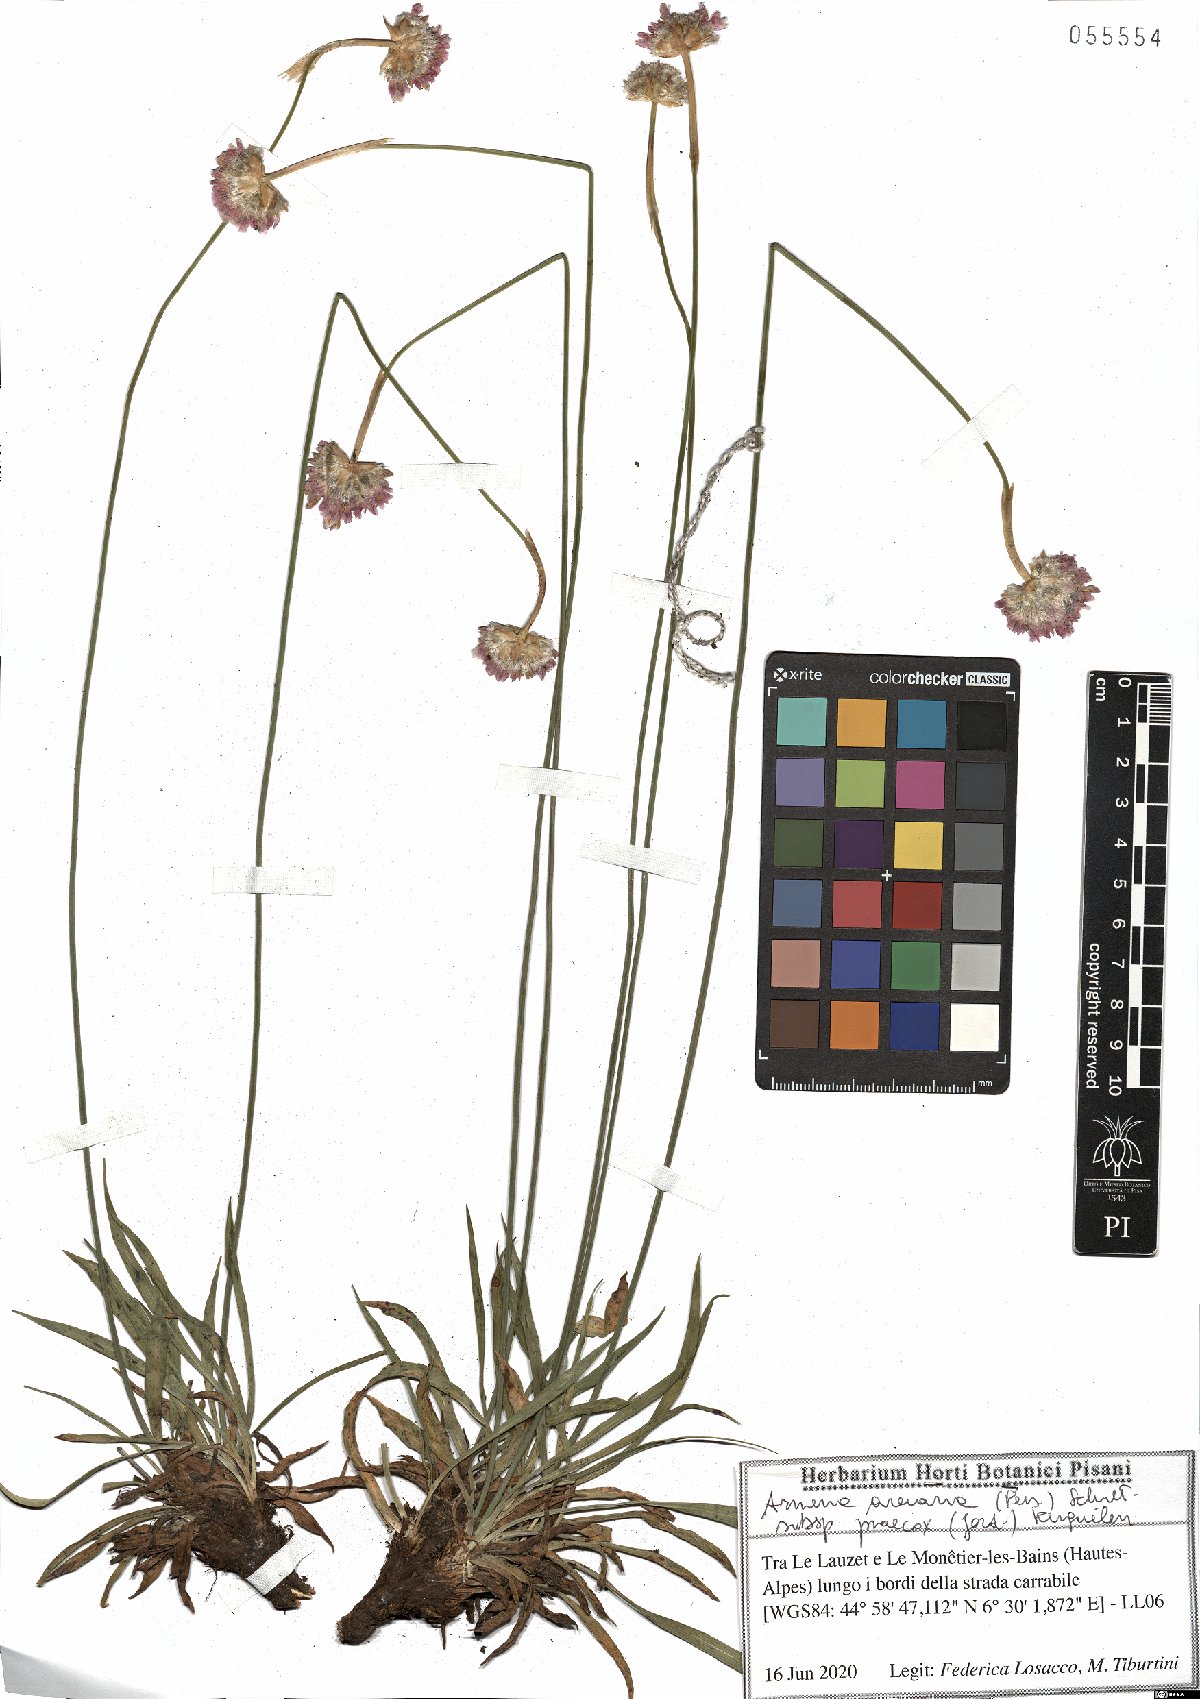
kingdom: Plantae
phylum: Tracheophyta
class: Magnoliopsida
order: Caryophyllales
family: Plumbaginaceae
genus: Armeria
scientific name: Armeria arenaria
